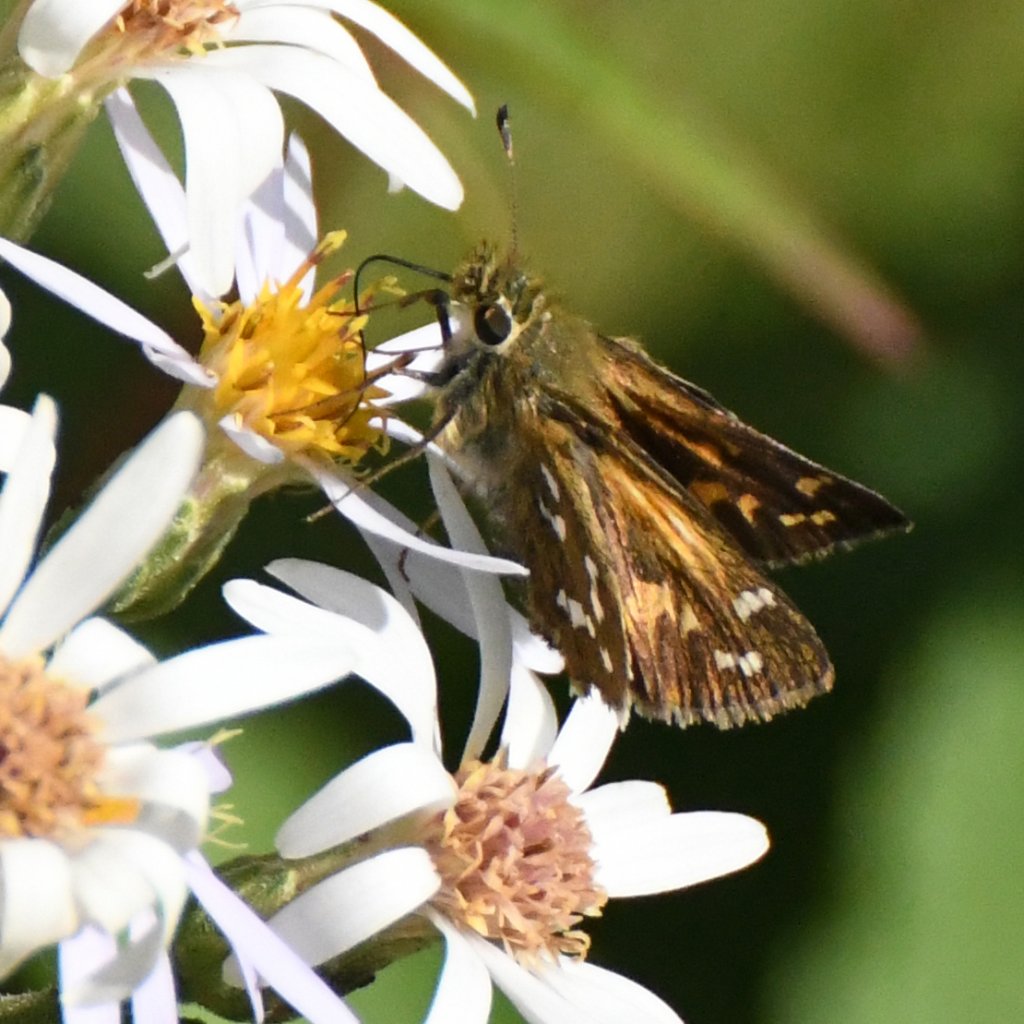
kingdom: Animalia
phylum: Arthropoda
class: Insecta
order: Lepidoptera
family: Hesperiidae
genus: Hesperia
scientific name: Hesperia comma
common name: Common Branded Skipper
